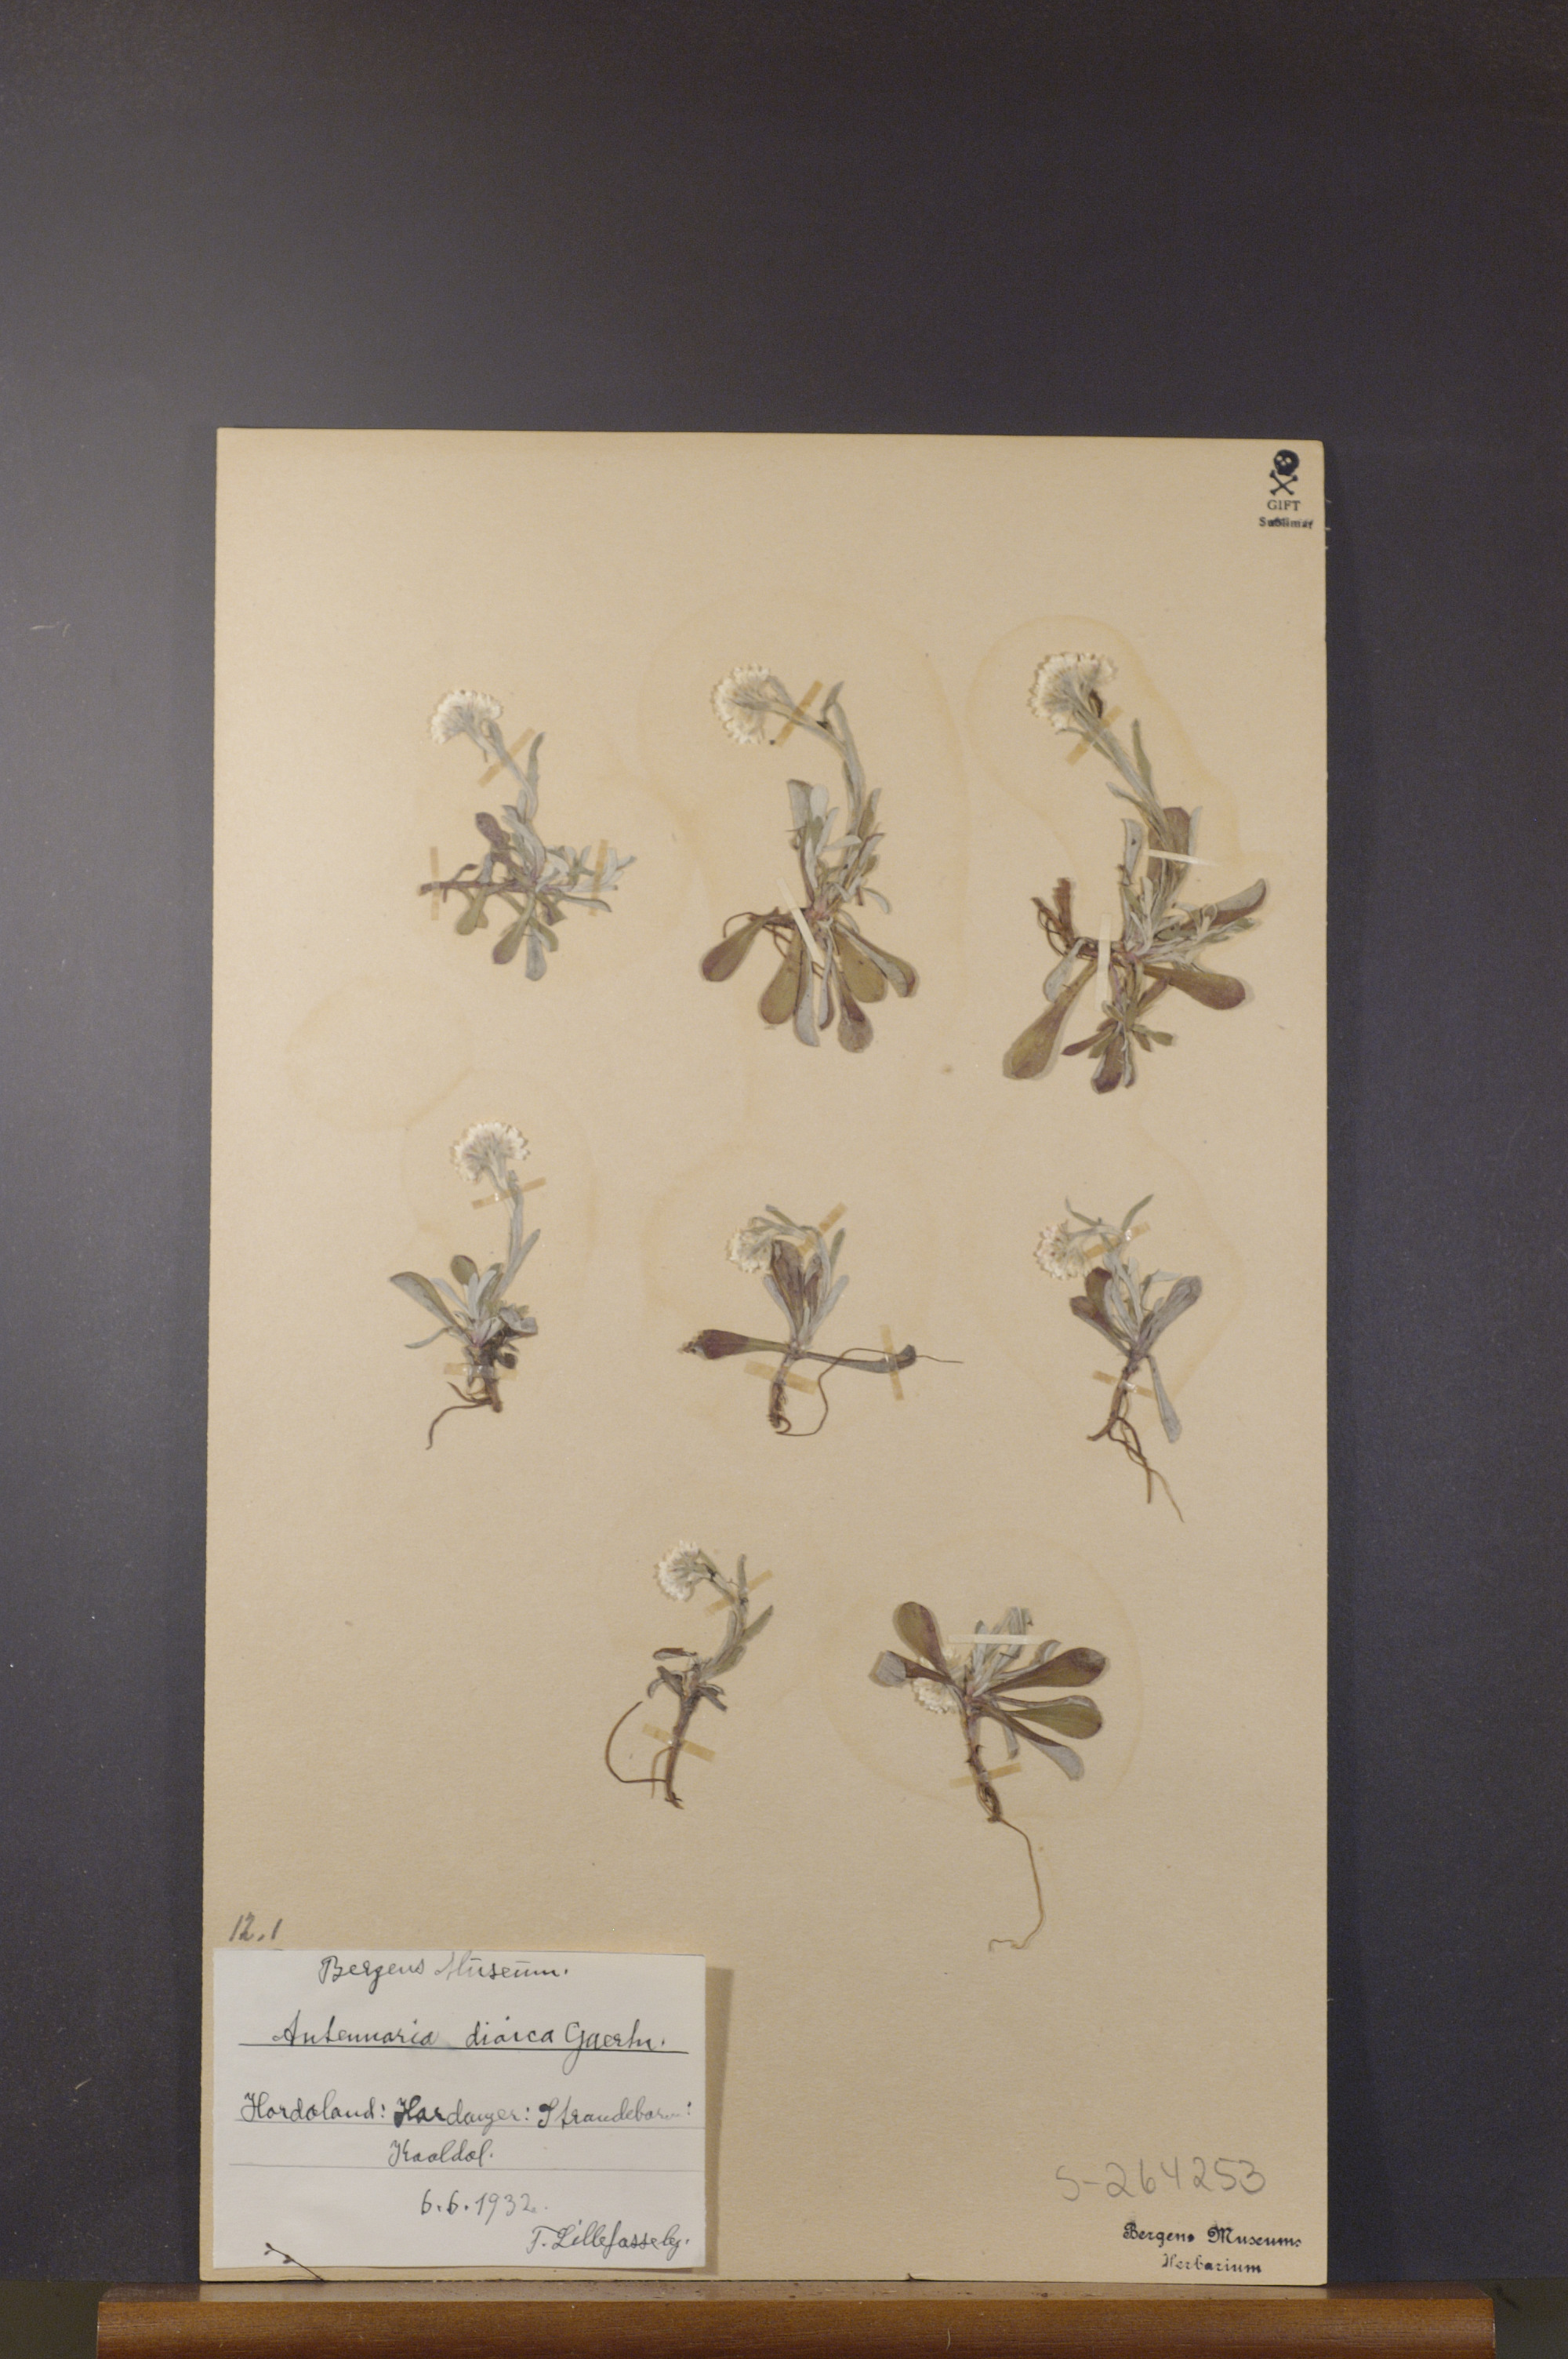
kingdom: Plantae
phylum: Tracheophyta
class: Magnoliopsida
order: Asterales
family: Asteraceae
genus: Antennaria
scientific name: Antennaria dioica
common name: Mountain everlasting
